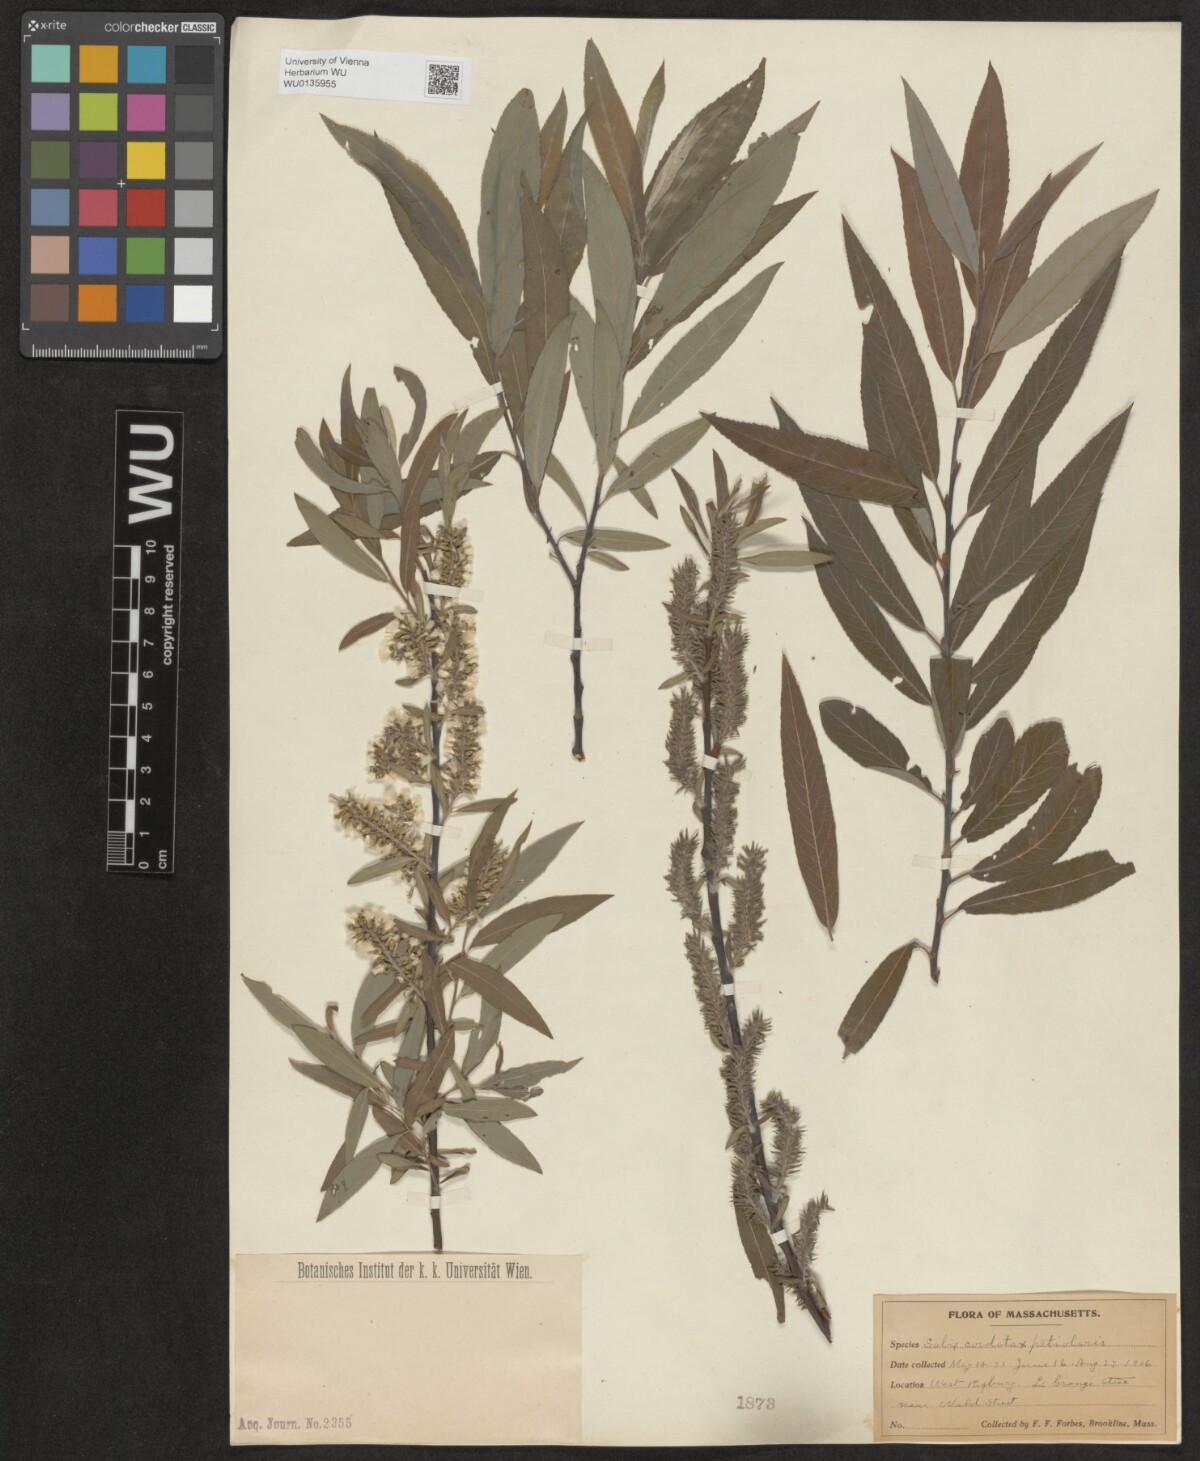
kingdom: Plantae
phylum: Tracheophyta
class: Magnoliopsida
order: Malpighiales
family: Salicaceae
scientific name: Salicaceae
